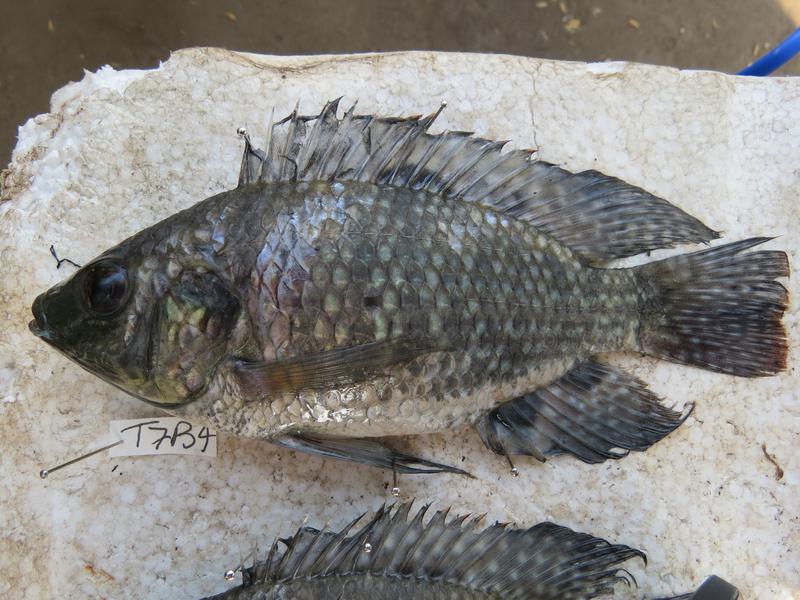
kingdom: Animalia
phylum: Chordata
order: Perciformes
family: Cichlidae
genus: Oreochromis
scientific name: Oreochromis leucostictus
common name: Blue spotted tilapia
